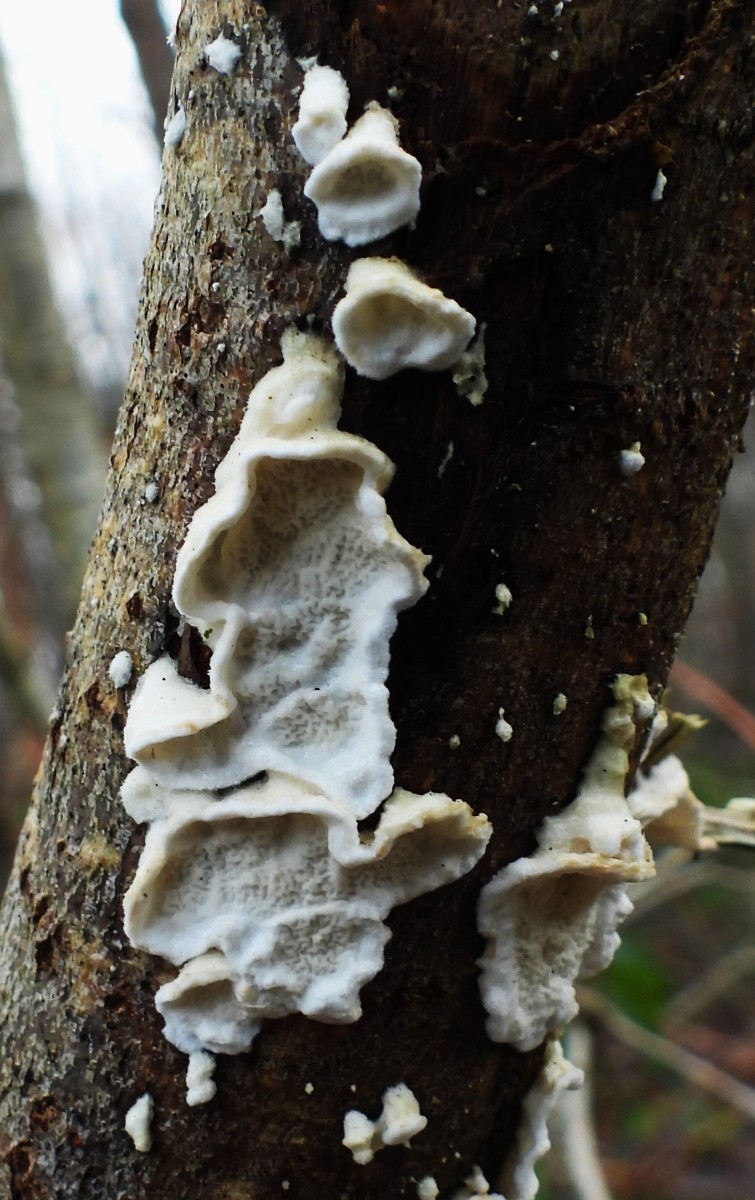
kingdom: Fungi
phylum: Basidiomycota
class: Agaricomycetes
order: Polyporales
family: Irpicaceae
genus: Byssomerulius
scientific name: Byssomerulius corium
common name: læder-åresvamp
